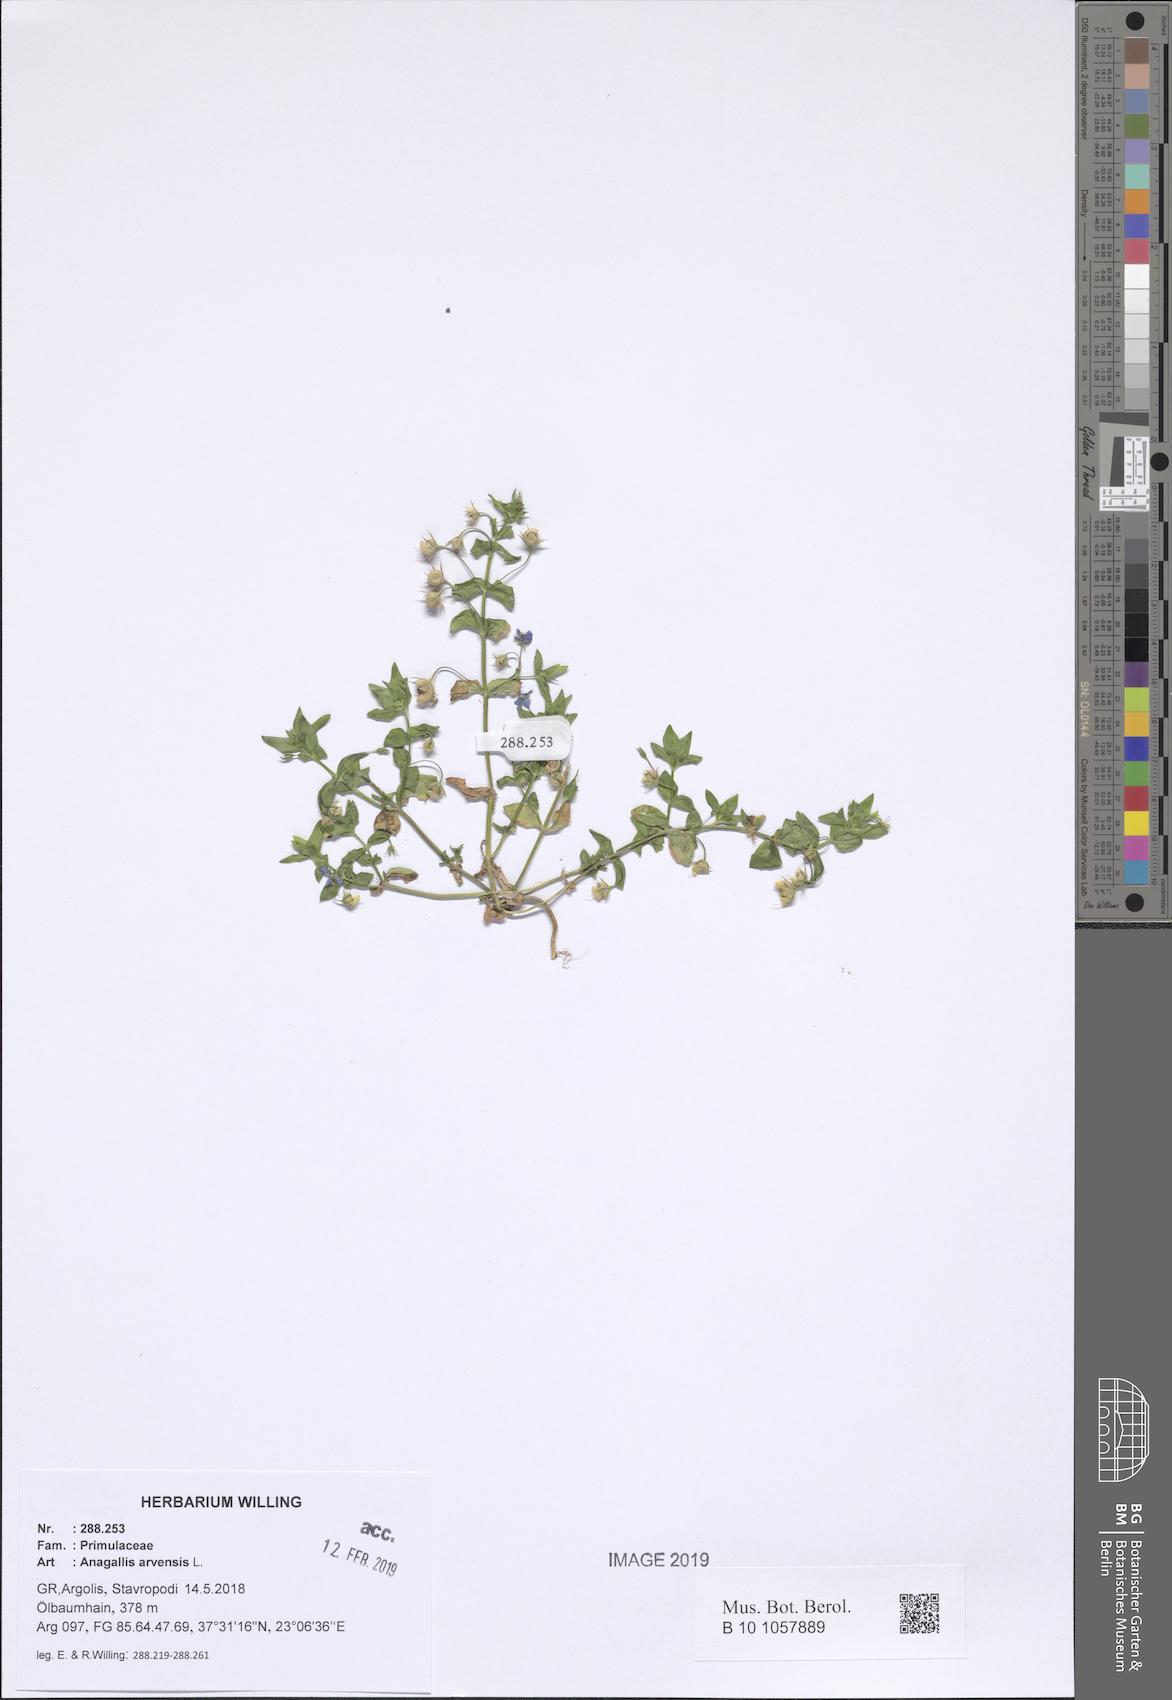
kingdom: Plantae
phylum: Tracheophyta
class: Magnoliopsida
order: Ericales
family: Primulaceae
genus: Lysimachia
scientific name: Lysimachia arvensis
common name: Scarlet pimpernel
